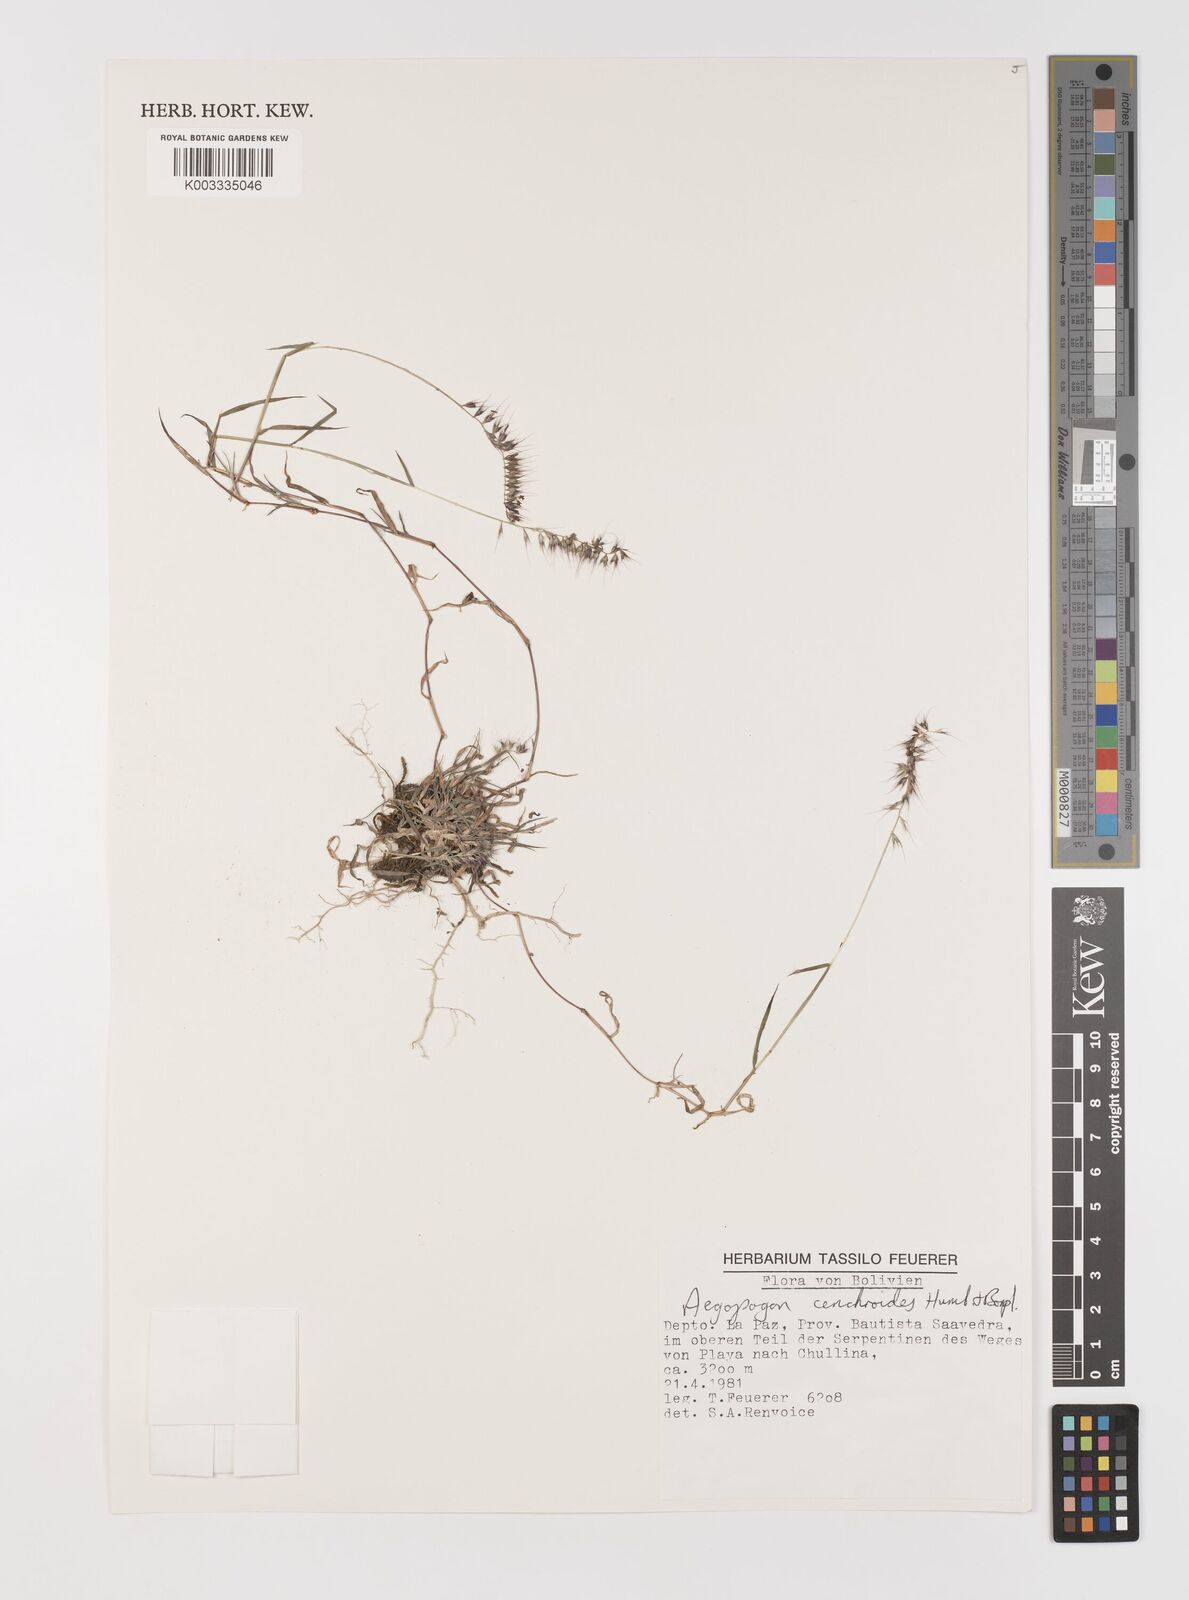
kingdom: Plantae
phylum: Tracheophyta
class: Liliopsida
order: Poales
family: Poaceae
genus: Muhlenbergia
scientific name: Muhlenbergia cenchroides
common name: Relaxgrass
